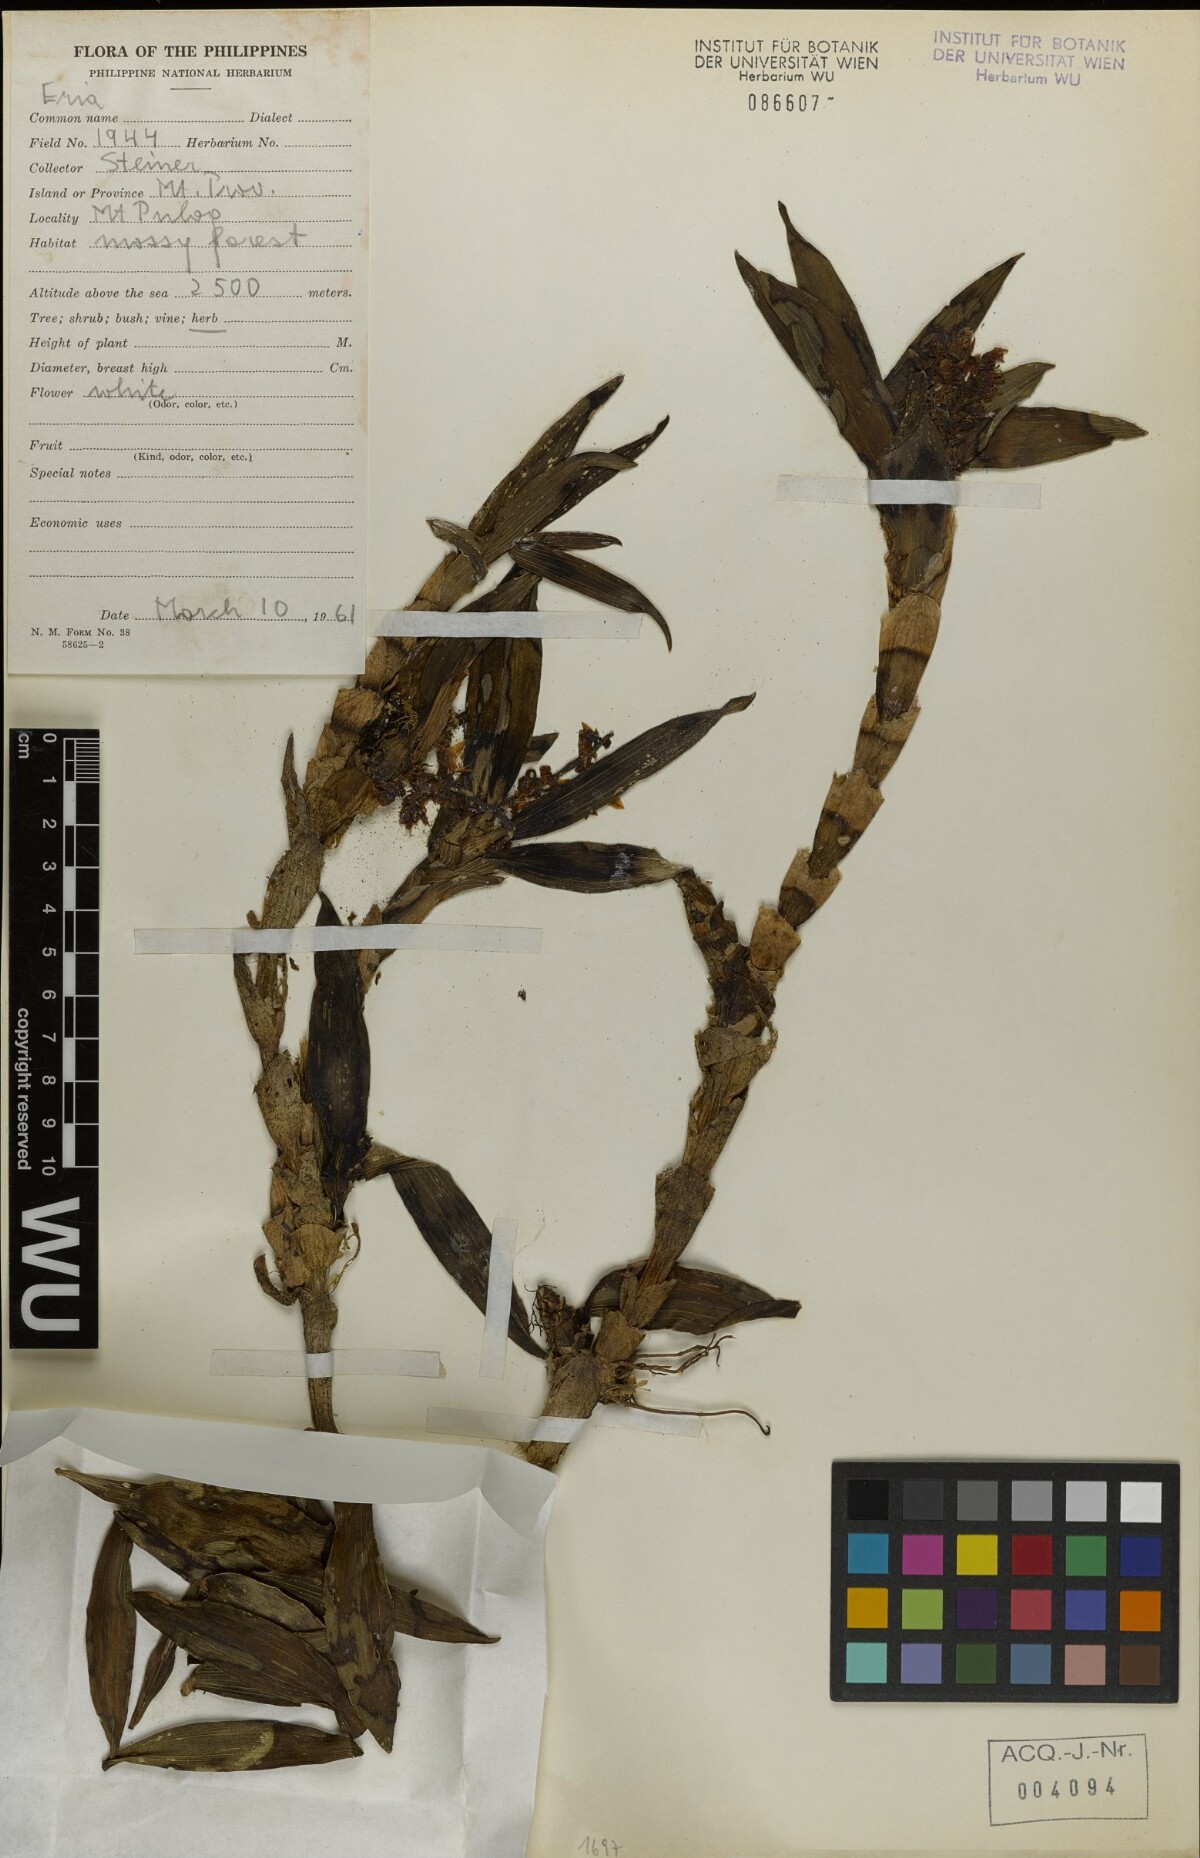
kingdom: Plantae
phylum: Tracheophyta
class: Liliopsida
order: Asparagales
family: Orchidaceae
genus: Eria
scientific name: Eria
